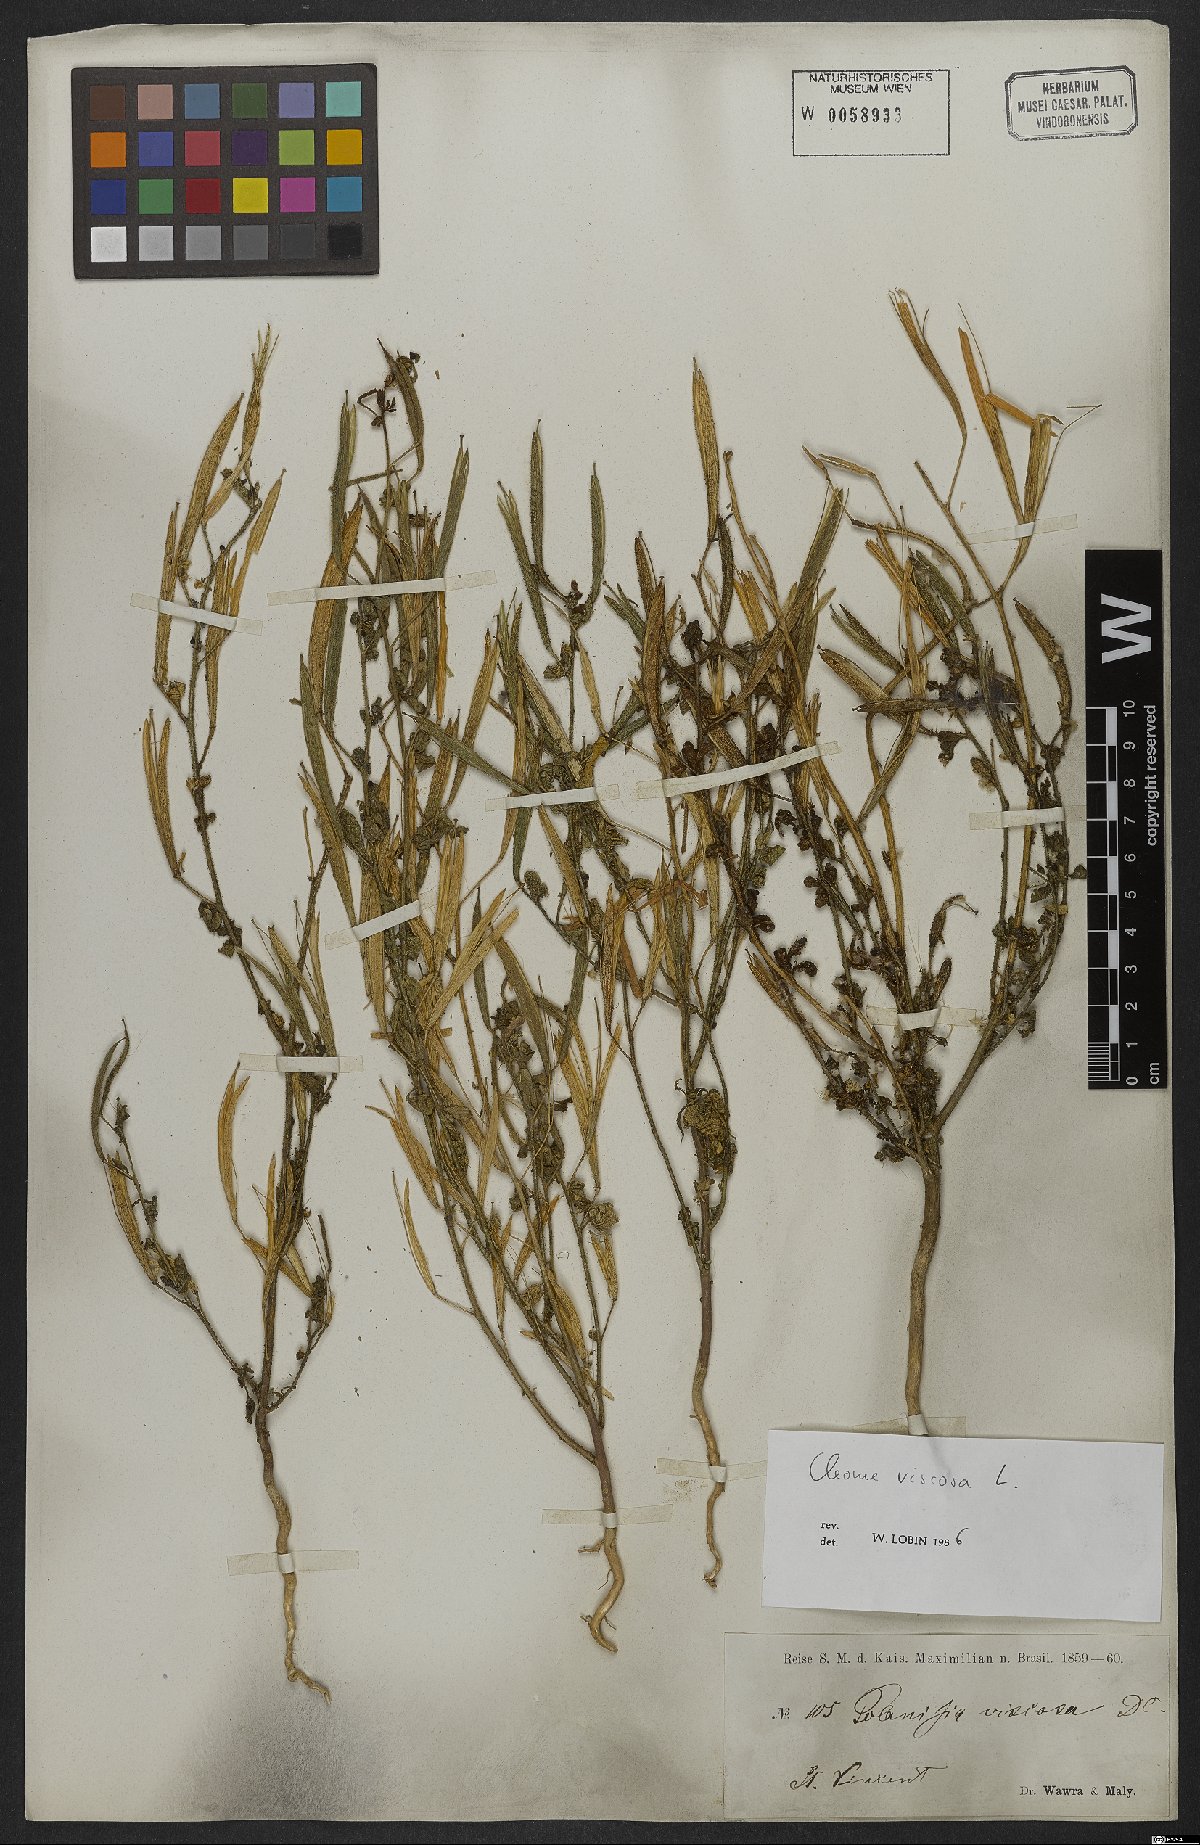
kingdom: Plantae
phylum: Tracheophyta
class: Magnoliopsida
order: Brassicales
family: Cleomaceae
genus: Arivela
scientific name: Arivela viscosa
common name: Asian spiderflower
